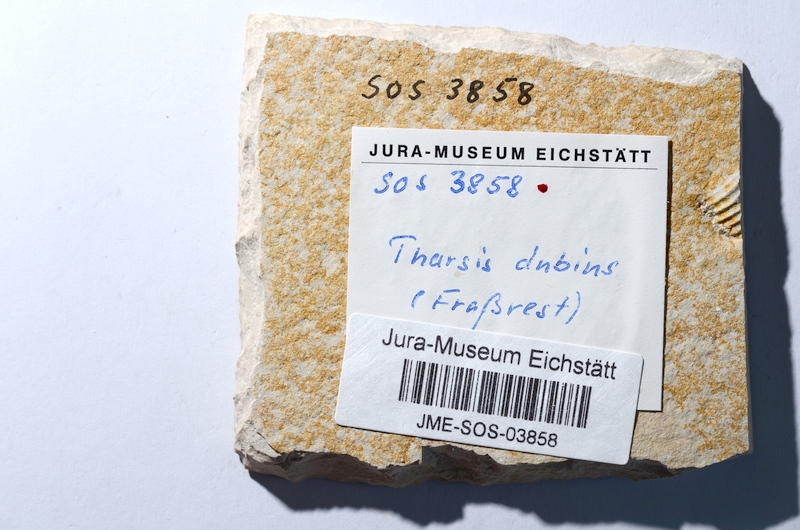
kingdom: Animalia
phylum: Chordata
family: Ascalaboidae
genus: Tharsis
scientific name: Tharsis dubius
